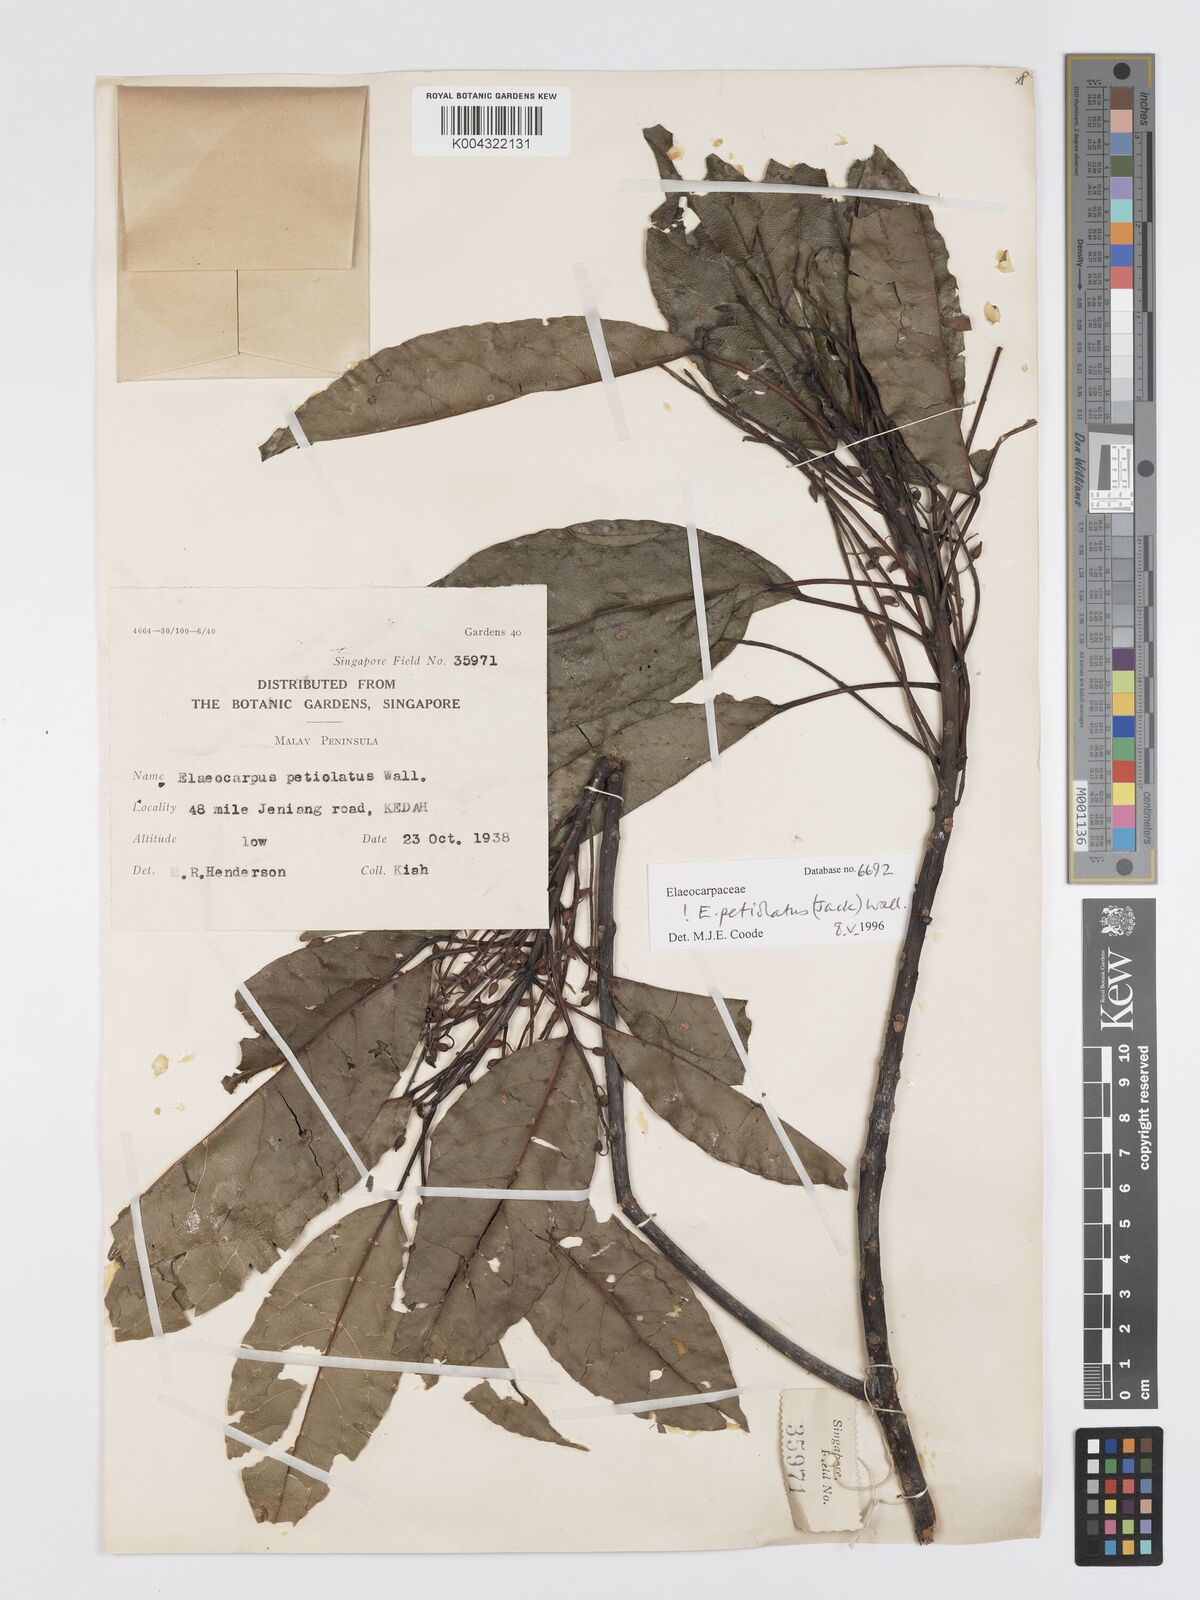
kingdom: Plantae
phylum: Tracheophyta
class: Magnoliopsida
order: Oxalidales
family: Elaeocarpaceae
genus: Elaeocarpus
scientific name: Elaeocarpus petiolatus
